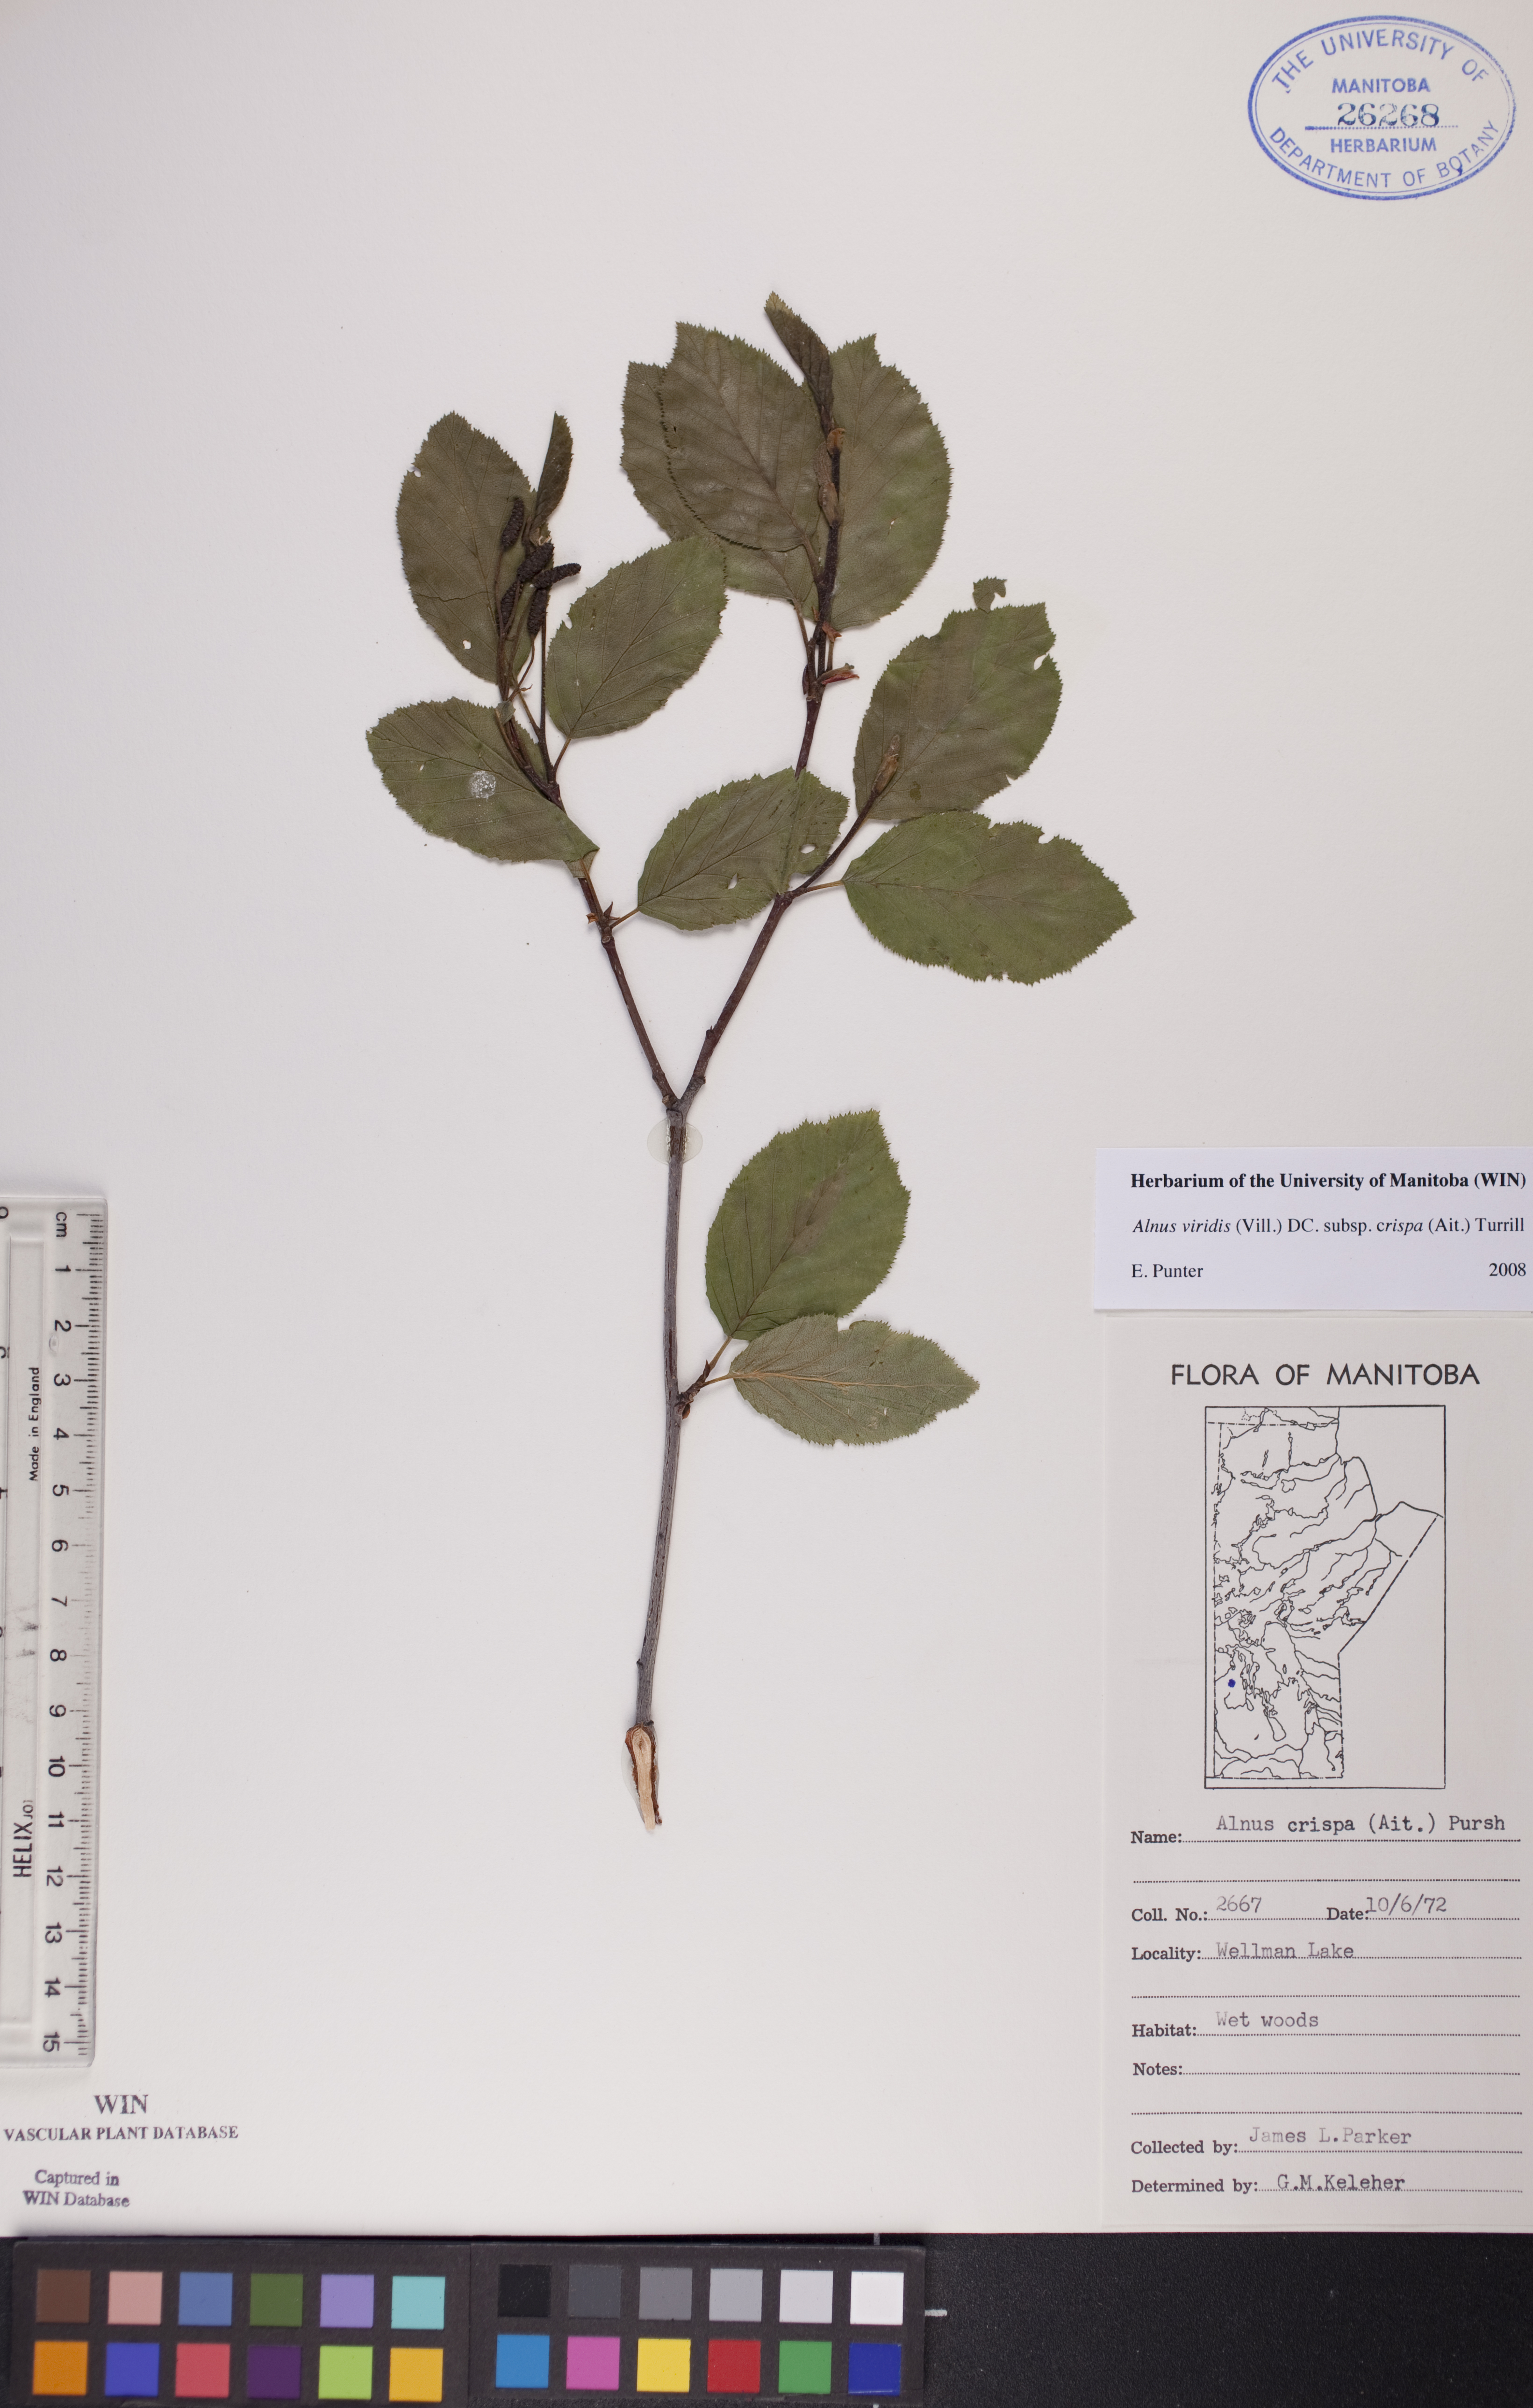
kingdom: Plantae
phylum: Tracheophyta
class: Magnoliopsida
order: Fagales
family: Betulaceae
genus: Alnus
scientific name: Alnus alnobetula
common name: Green alder
